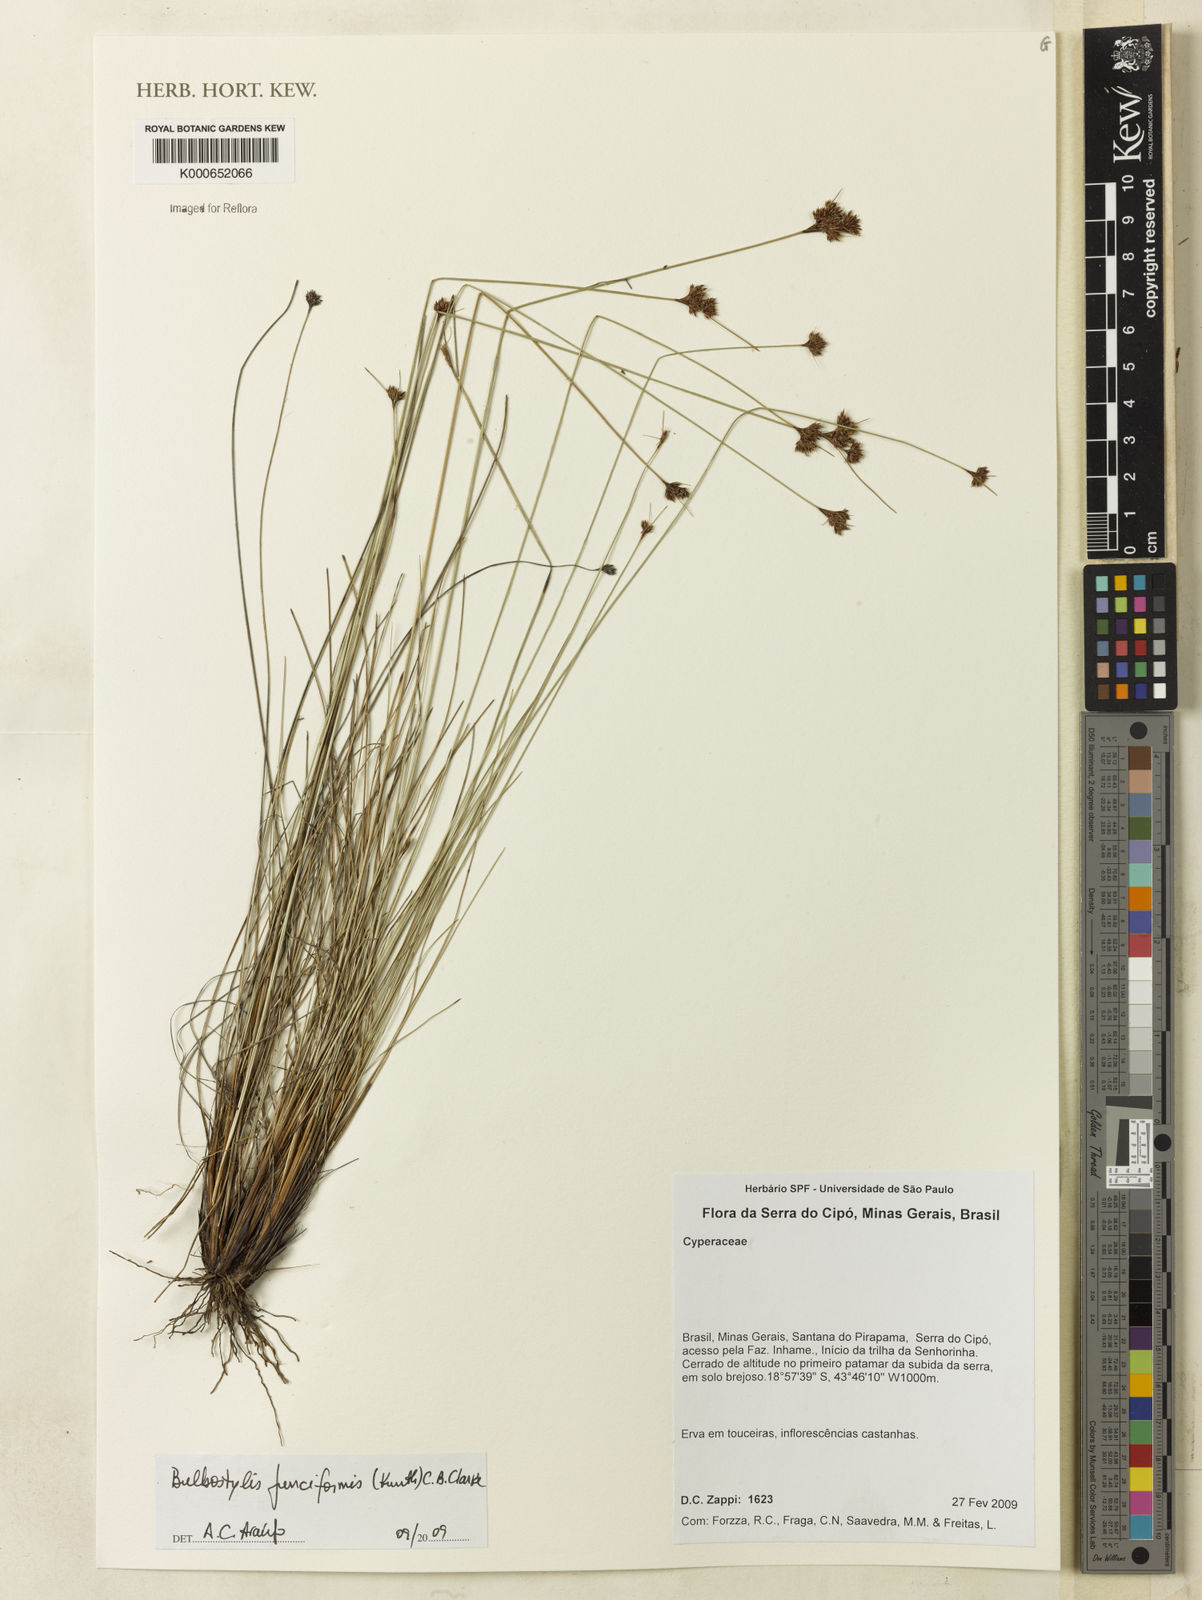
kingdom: Plantae
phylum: Tracheophyta
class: Liliopsida
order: Poales
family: Cyperaceae
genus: Bulbostylis
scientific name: Bulbostylis junciformis
